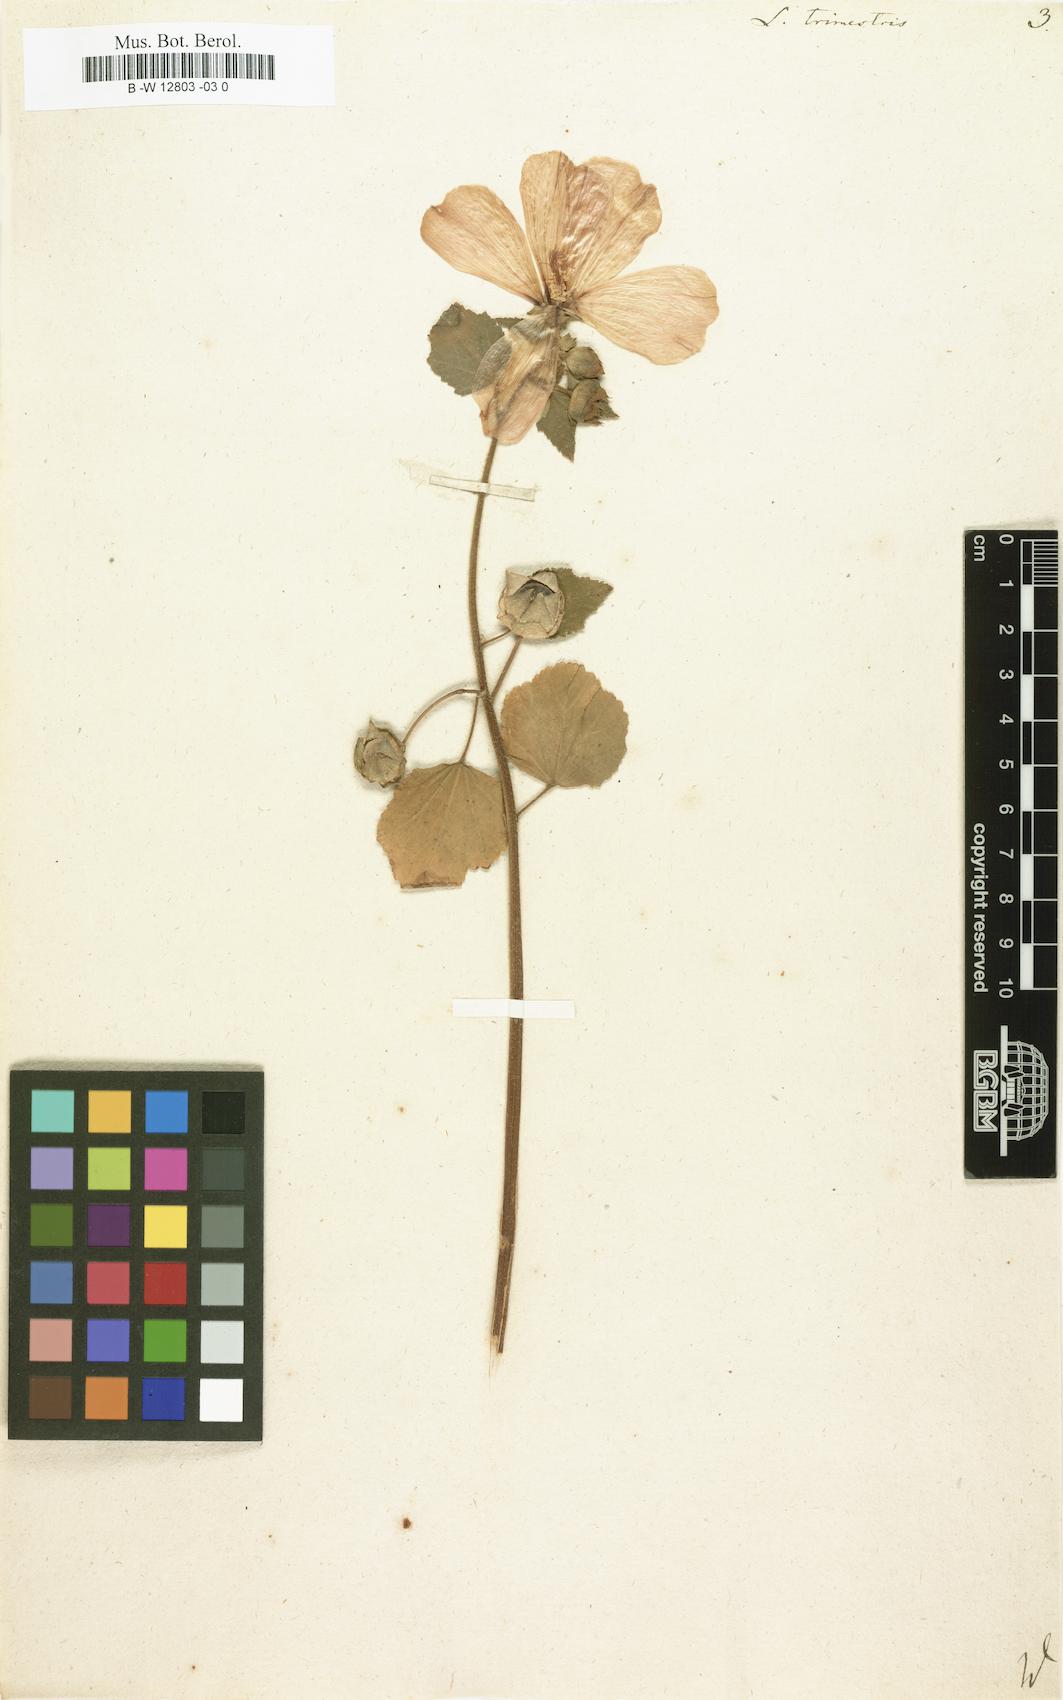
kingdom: Plantae
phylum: Tracheophyta
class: Magnoliopsida
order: Malvales
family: Malvaceae
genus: Malva
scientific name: Malva trimestris
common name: Royal mallow
